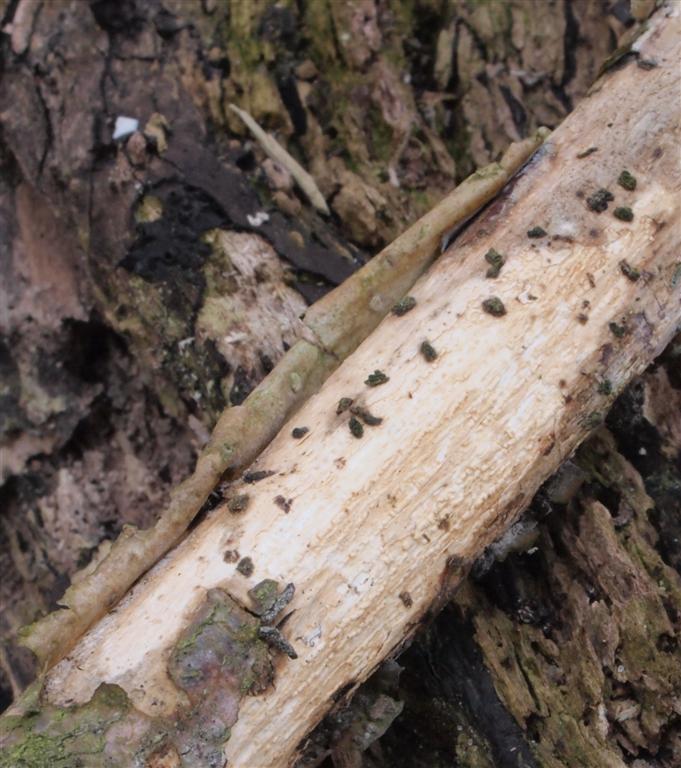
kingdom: Fungi
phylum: Basidiomycota
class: Agaricomycetes
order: Corticiales
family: Vuilleminiaceae
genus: Vuilleminia
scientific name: Vuilleminia comedens
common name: almindelig barksprænger
